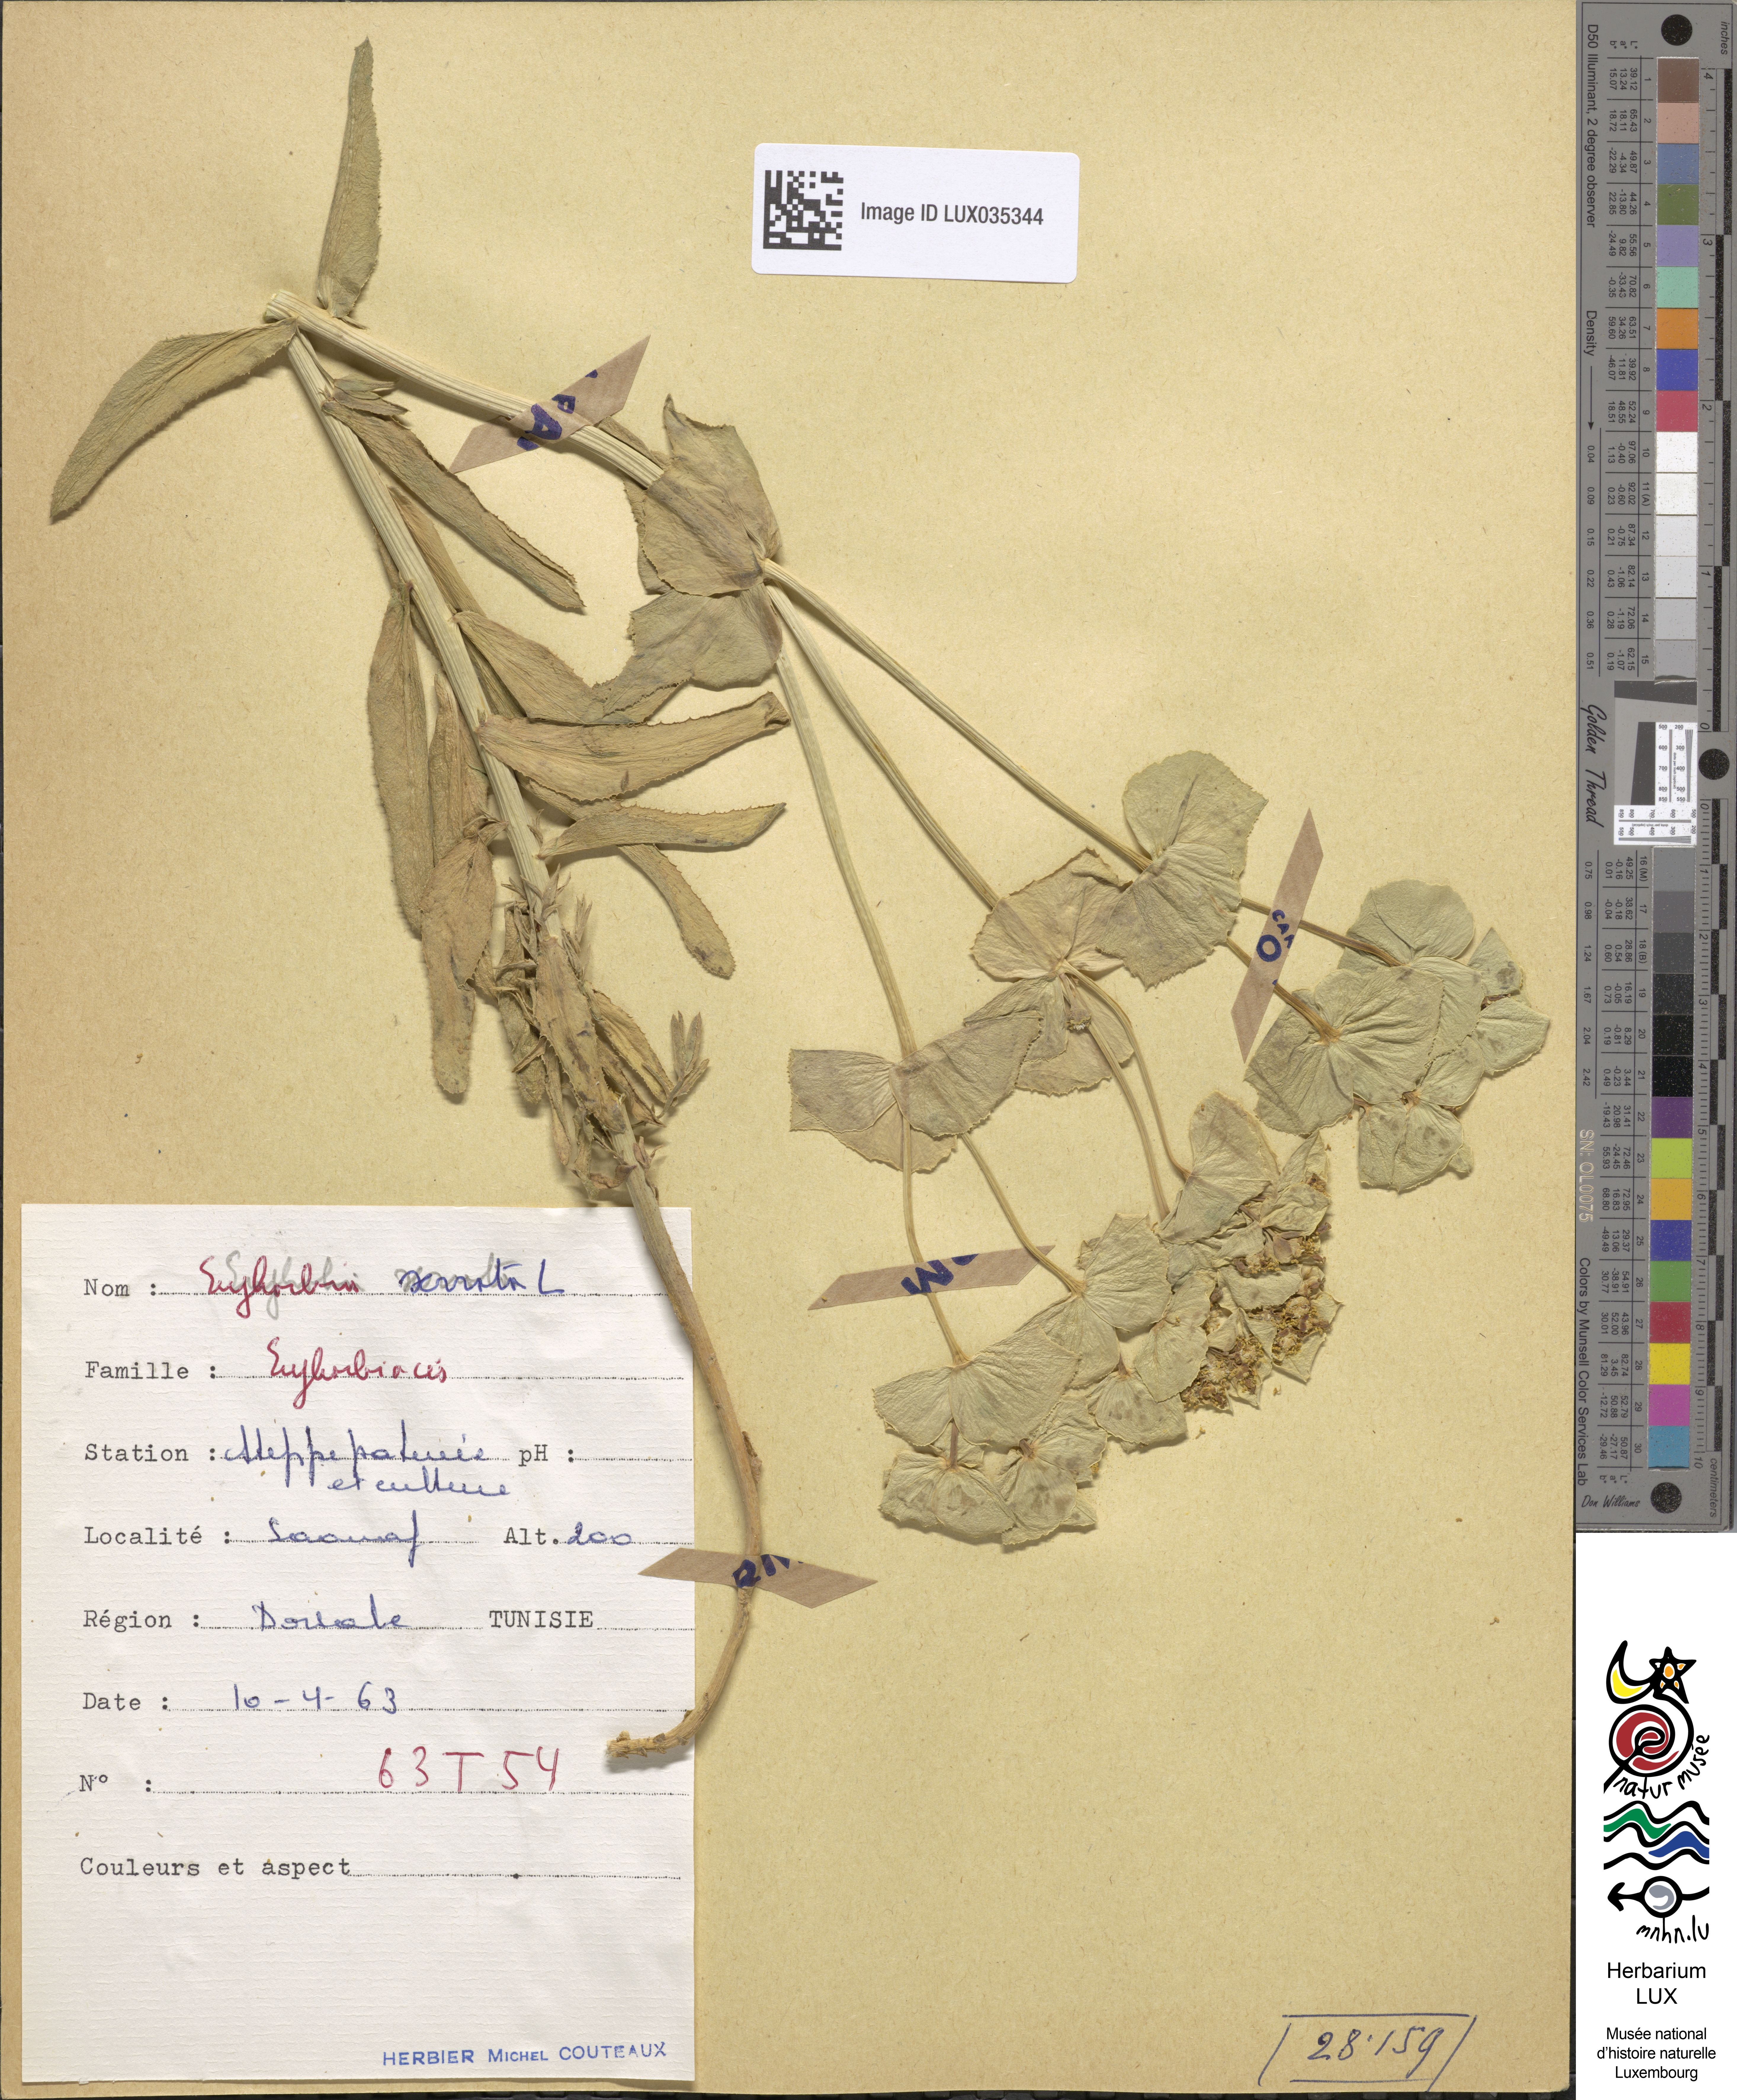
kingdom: Plantae
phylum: Tracheophyta
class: Magnoliopsida
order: Malpighiales
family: Euphorbiaceae
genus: Euphorbia
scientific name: Euphorbia serrata
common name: Serrate spurge
